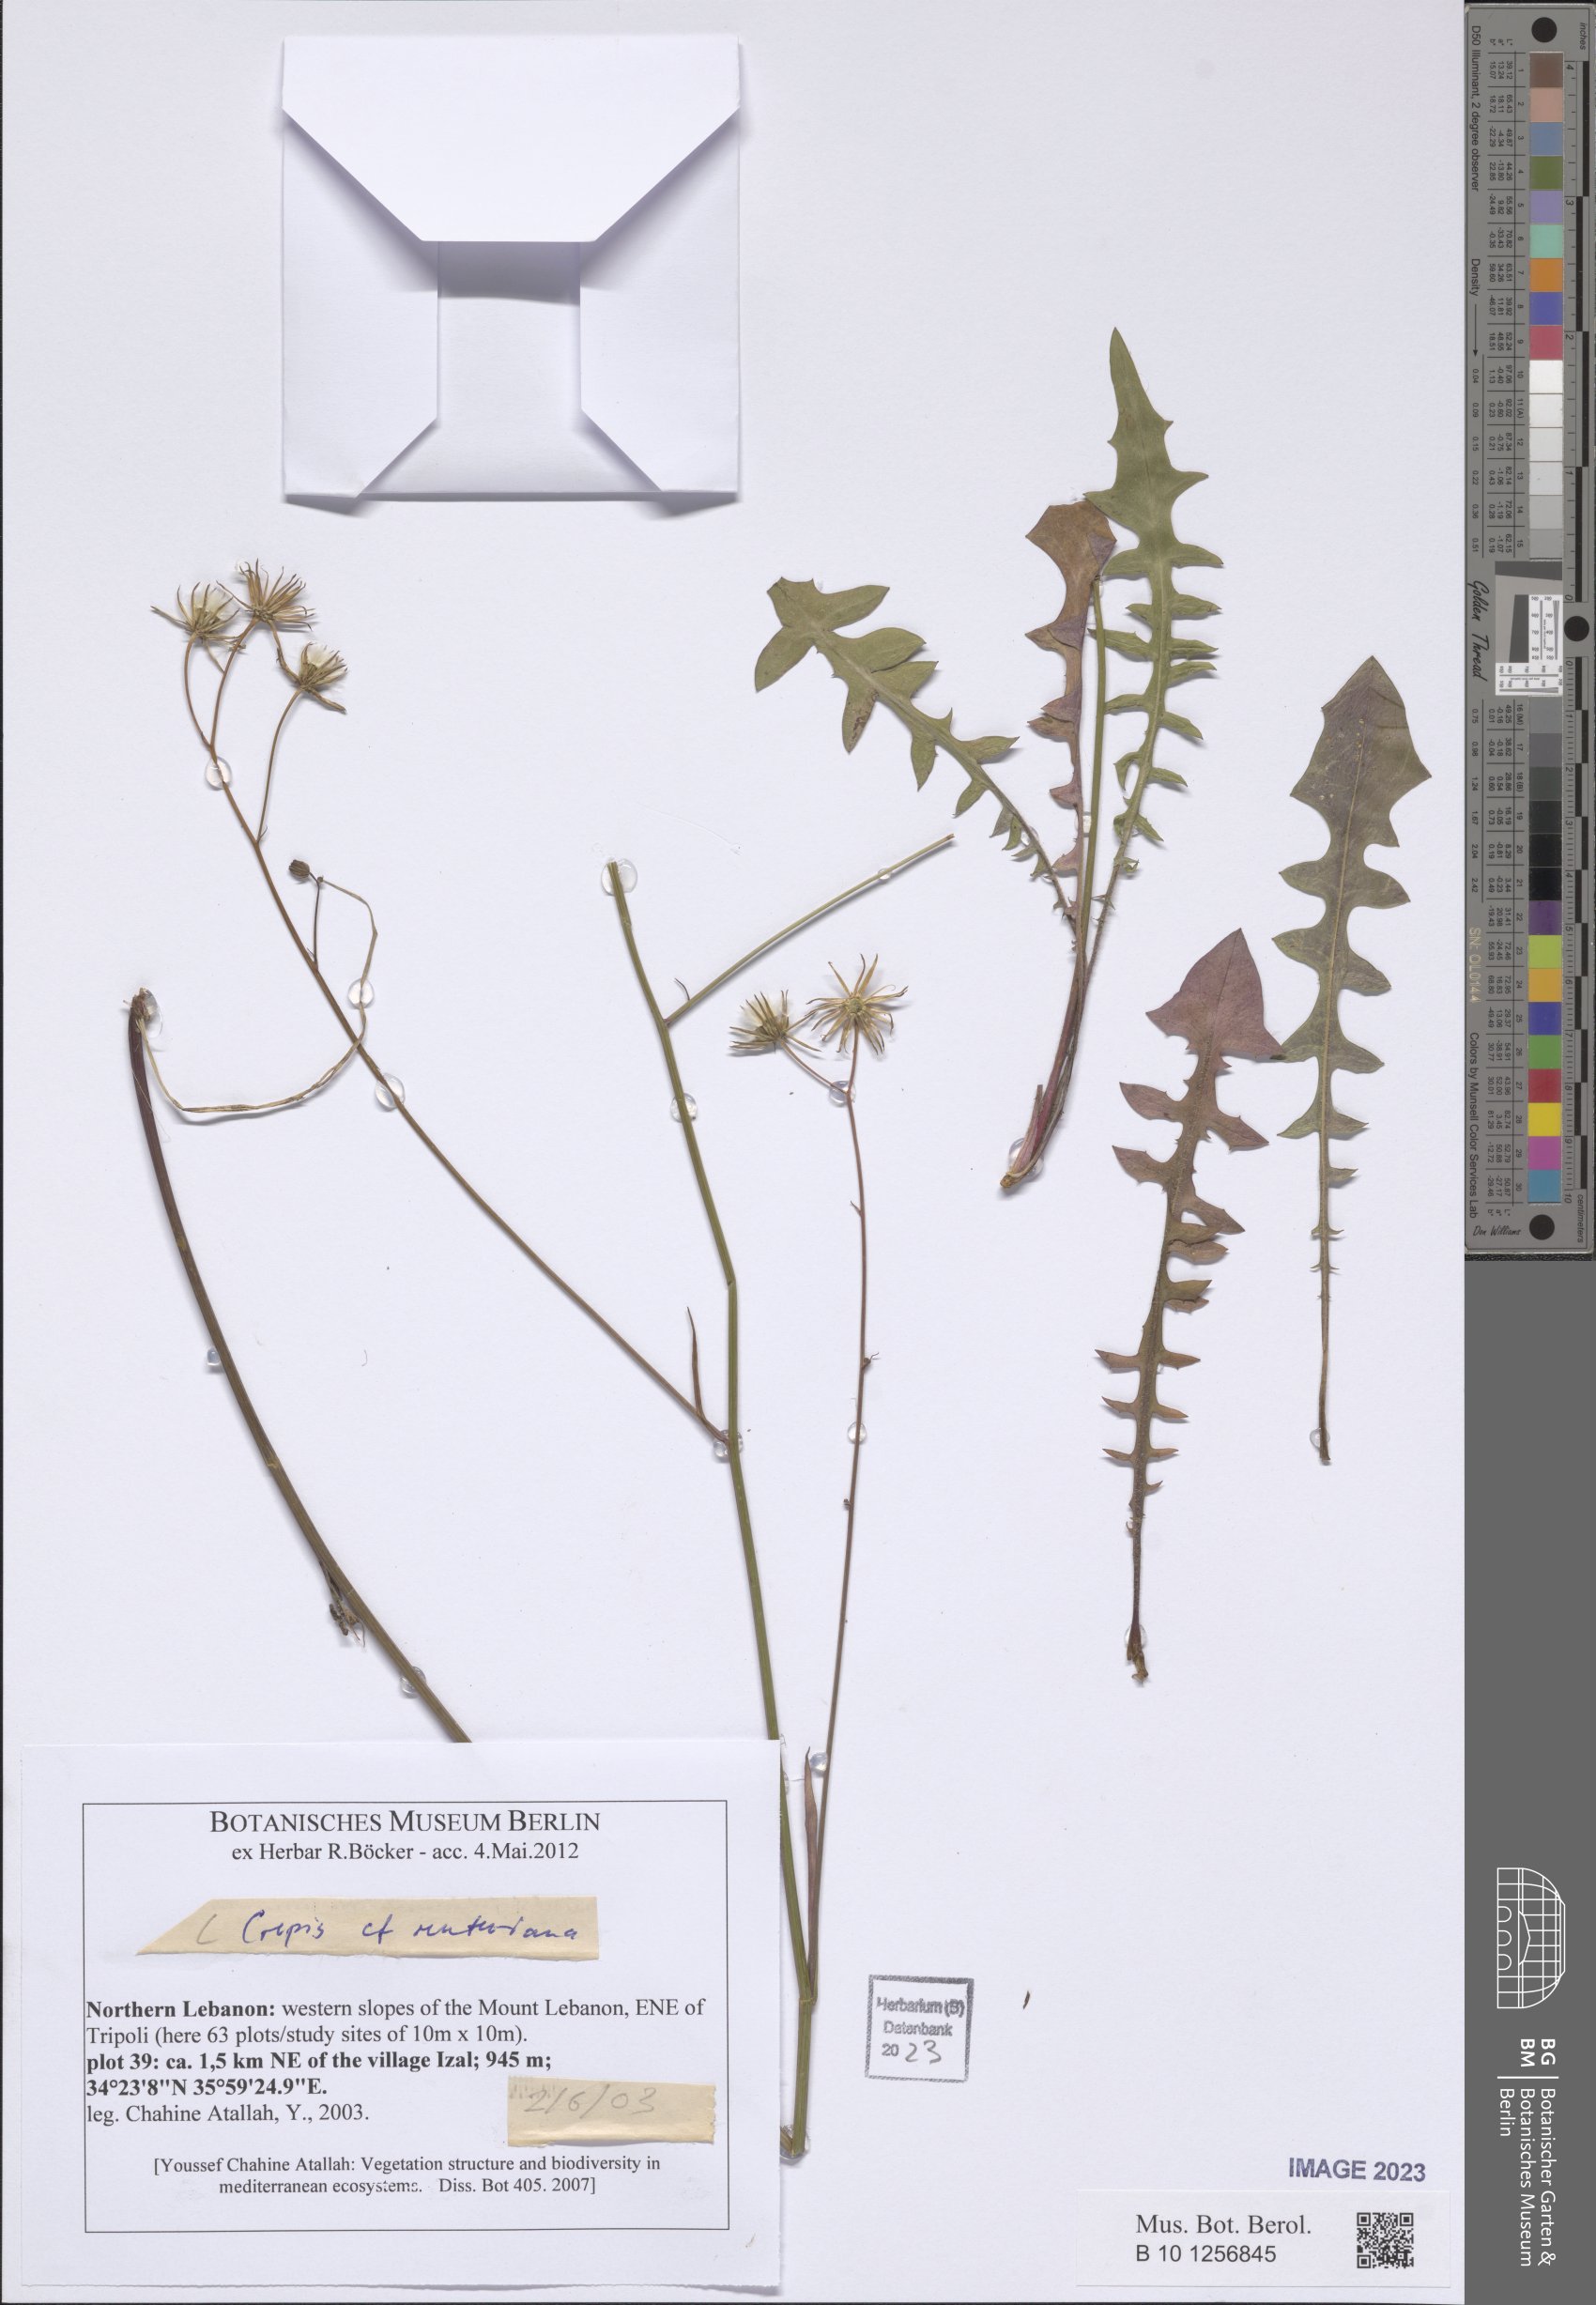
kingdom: Plantae
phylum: Tracheophyta
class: Magnoliopsida
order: Asterales
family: Asteraceae
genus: Crepis
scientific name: Crepis reuteriana
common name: Hawk's-beard
